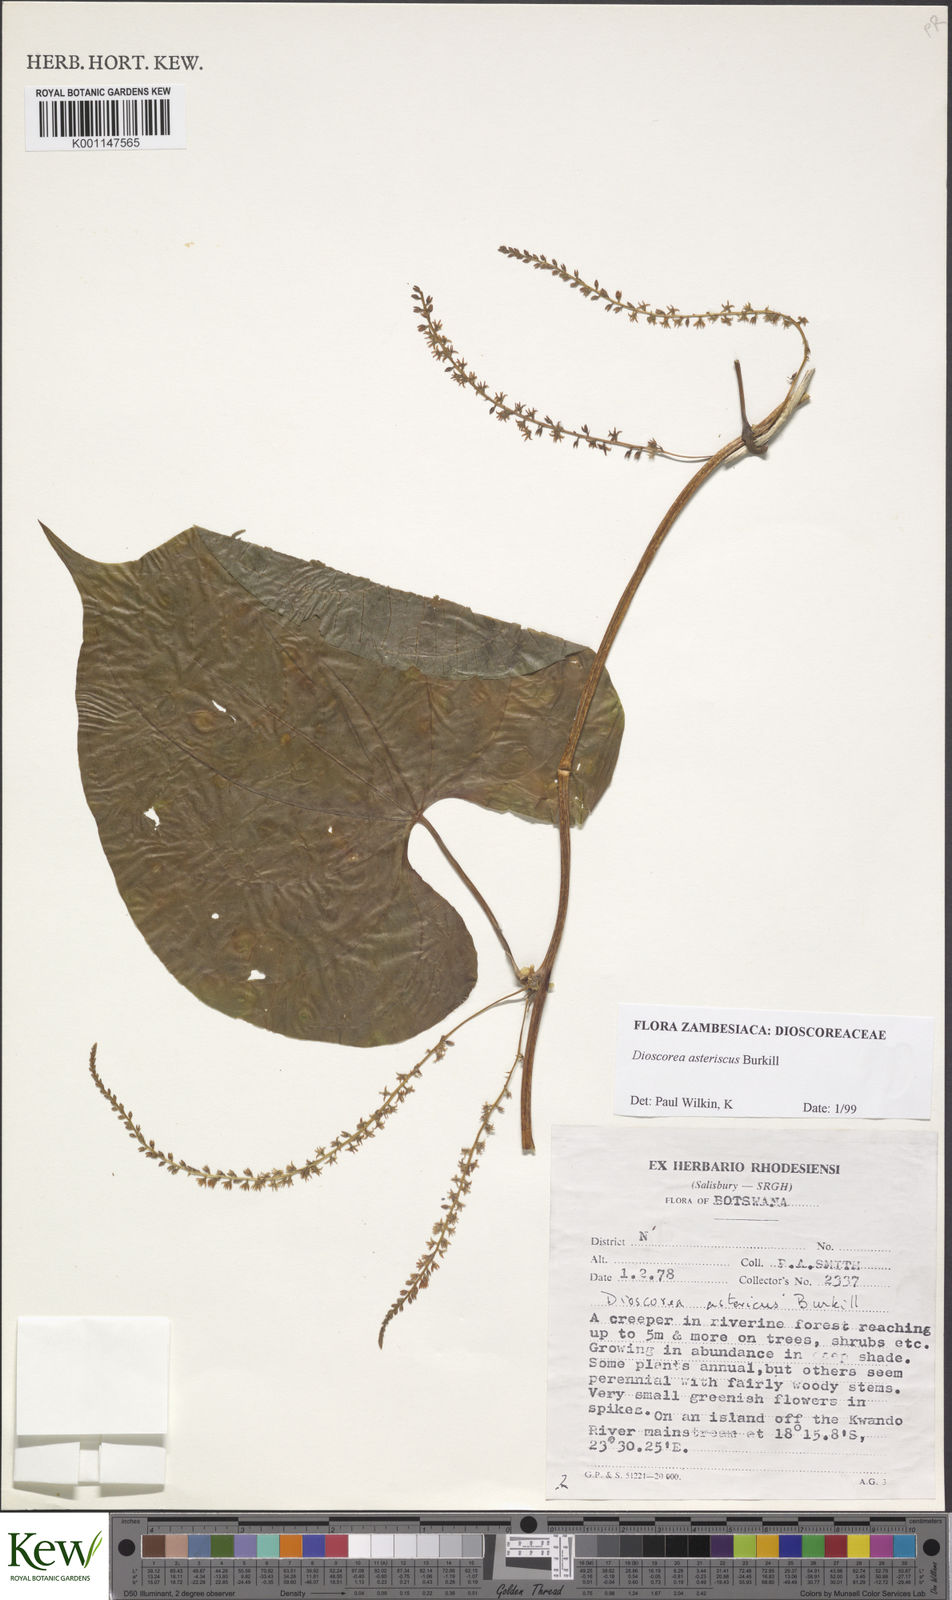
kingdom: Plantae
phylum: Tracheophyta
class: Liliopsida
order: Dioscoreales
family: Dioscoreaceae
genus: Dioscorea
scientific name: Dioscorea asteriscus
